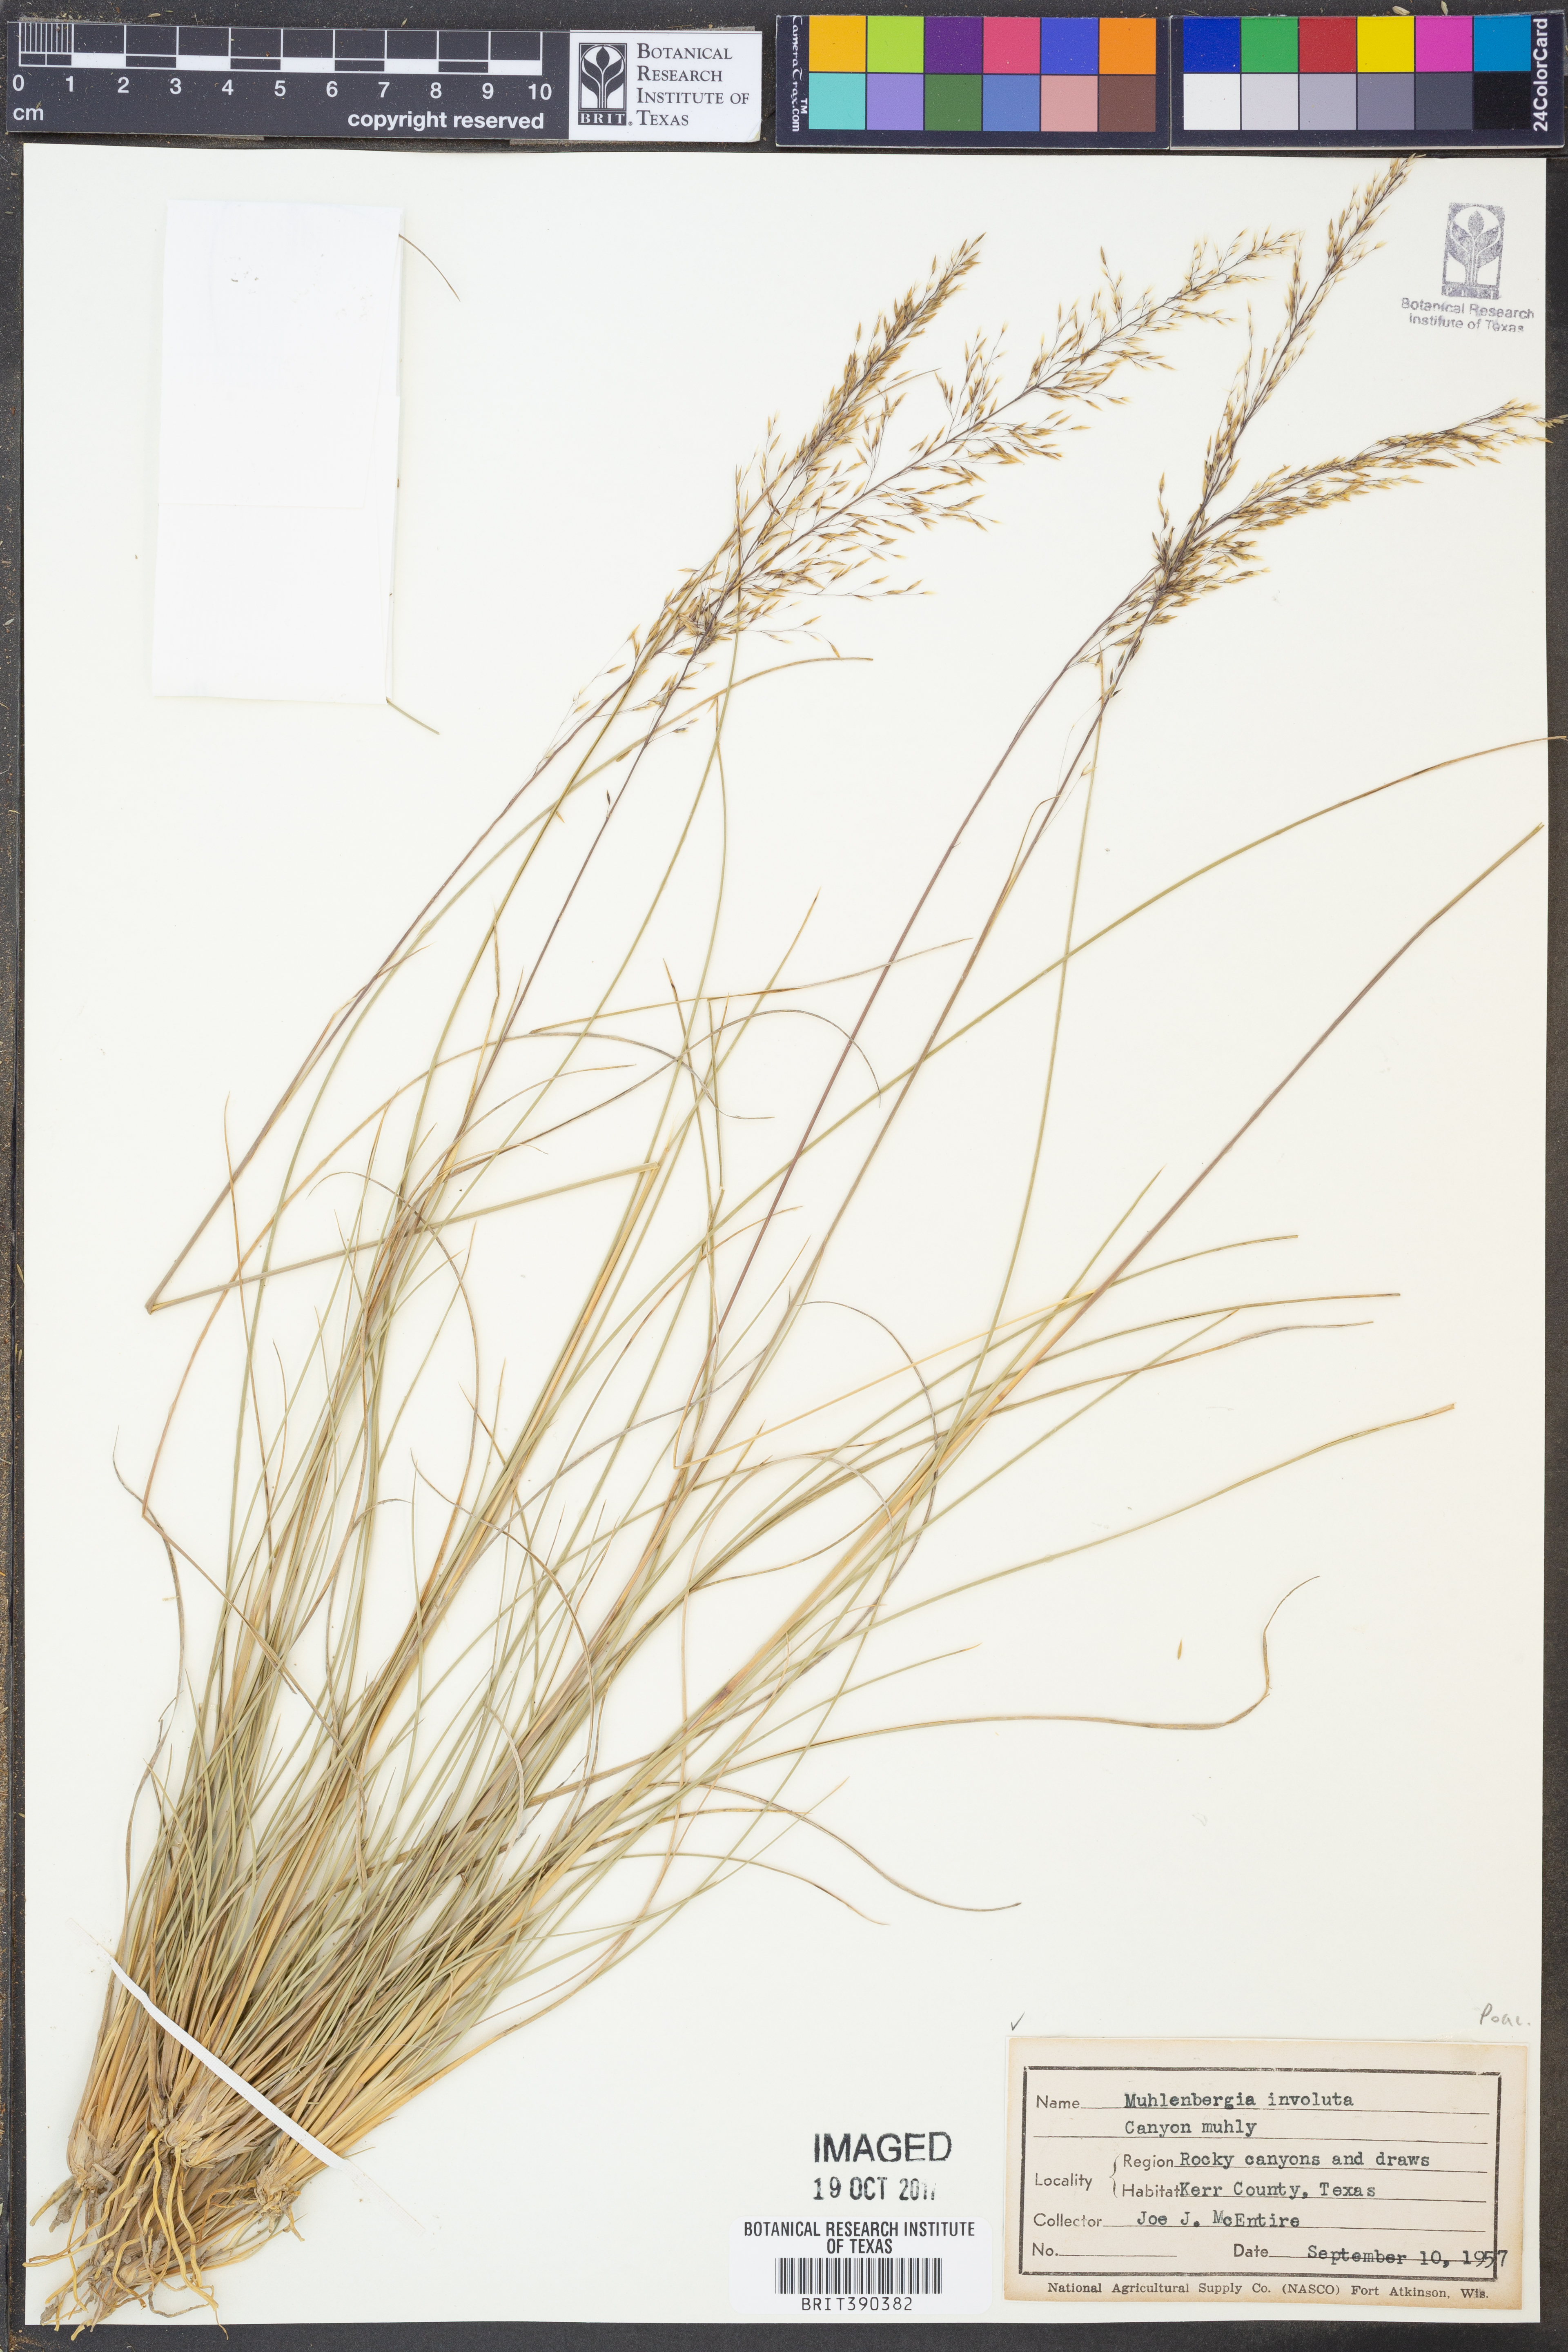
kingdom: Plantae
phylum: Tracheophyta
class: Liliopsida
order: Poales
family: Poaceae
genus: Muhlenbergia
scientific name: Muhlenbergia involuta
